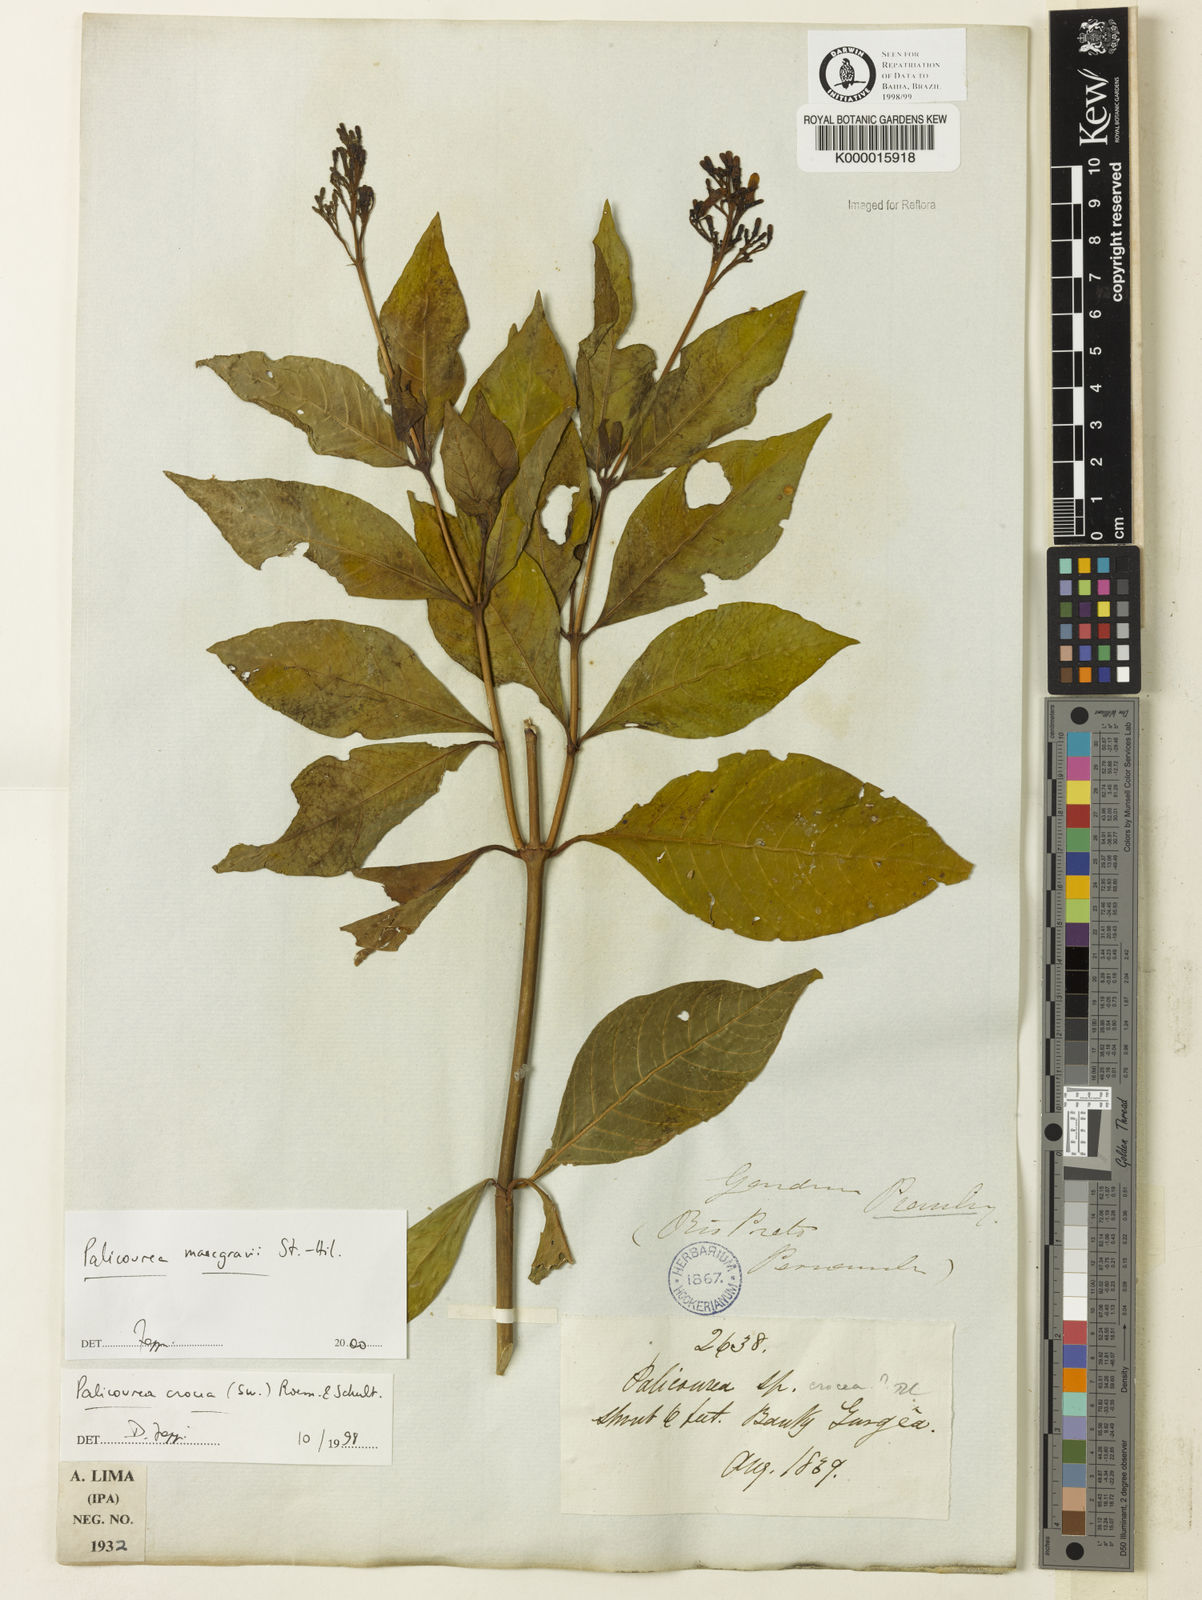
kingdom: Plantae
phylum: Tracheophyta
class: Magnoliopsida
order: Gentianales
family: Rubiaceae
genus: Palicourea
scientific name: Palicourea marcgravii
